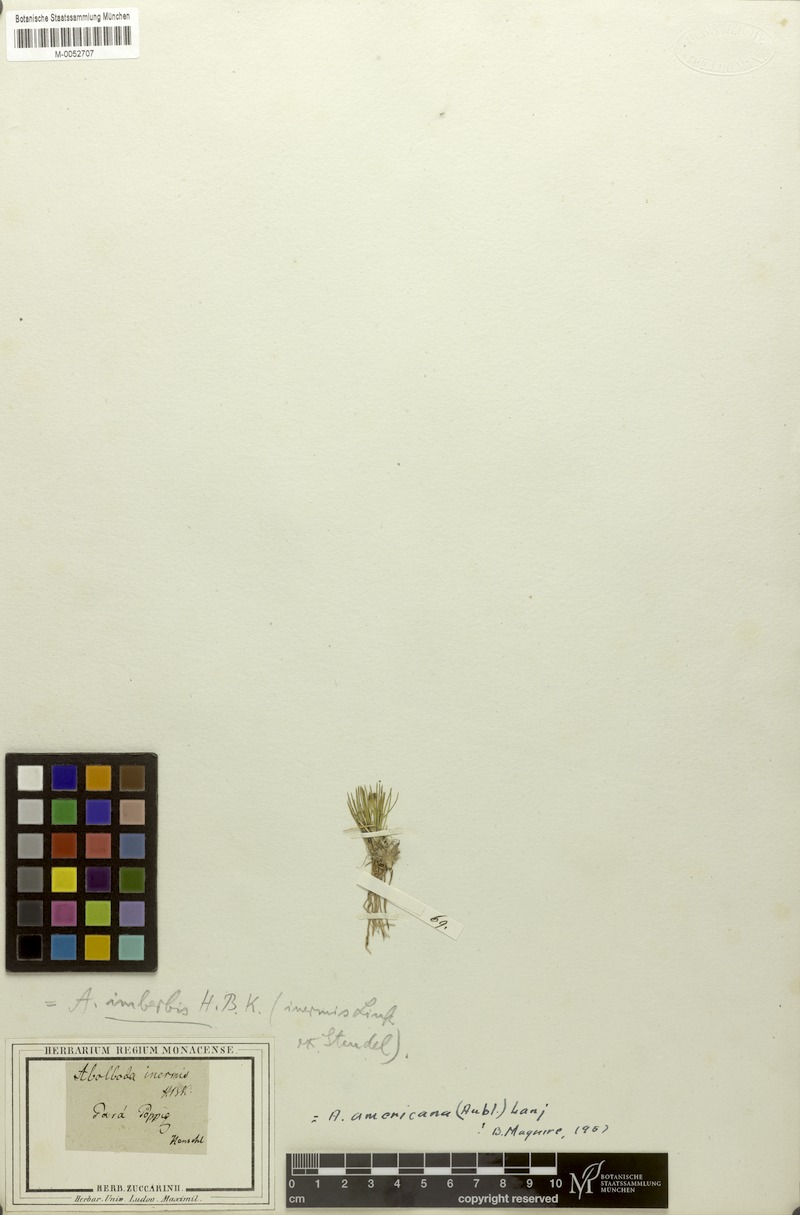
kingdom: Plantae
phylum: Tracheophyta
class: Liliopsida
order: Poales
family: Xyridaceae
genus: Abolboda
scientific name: Abolboda americana
